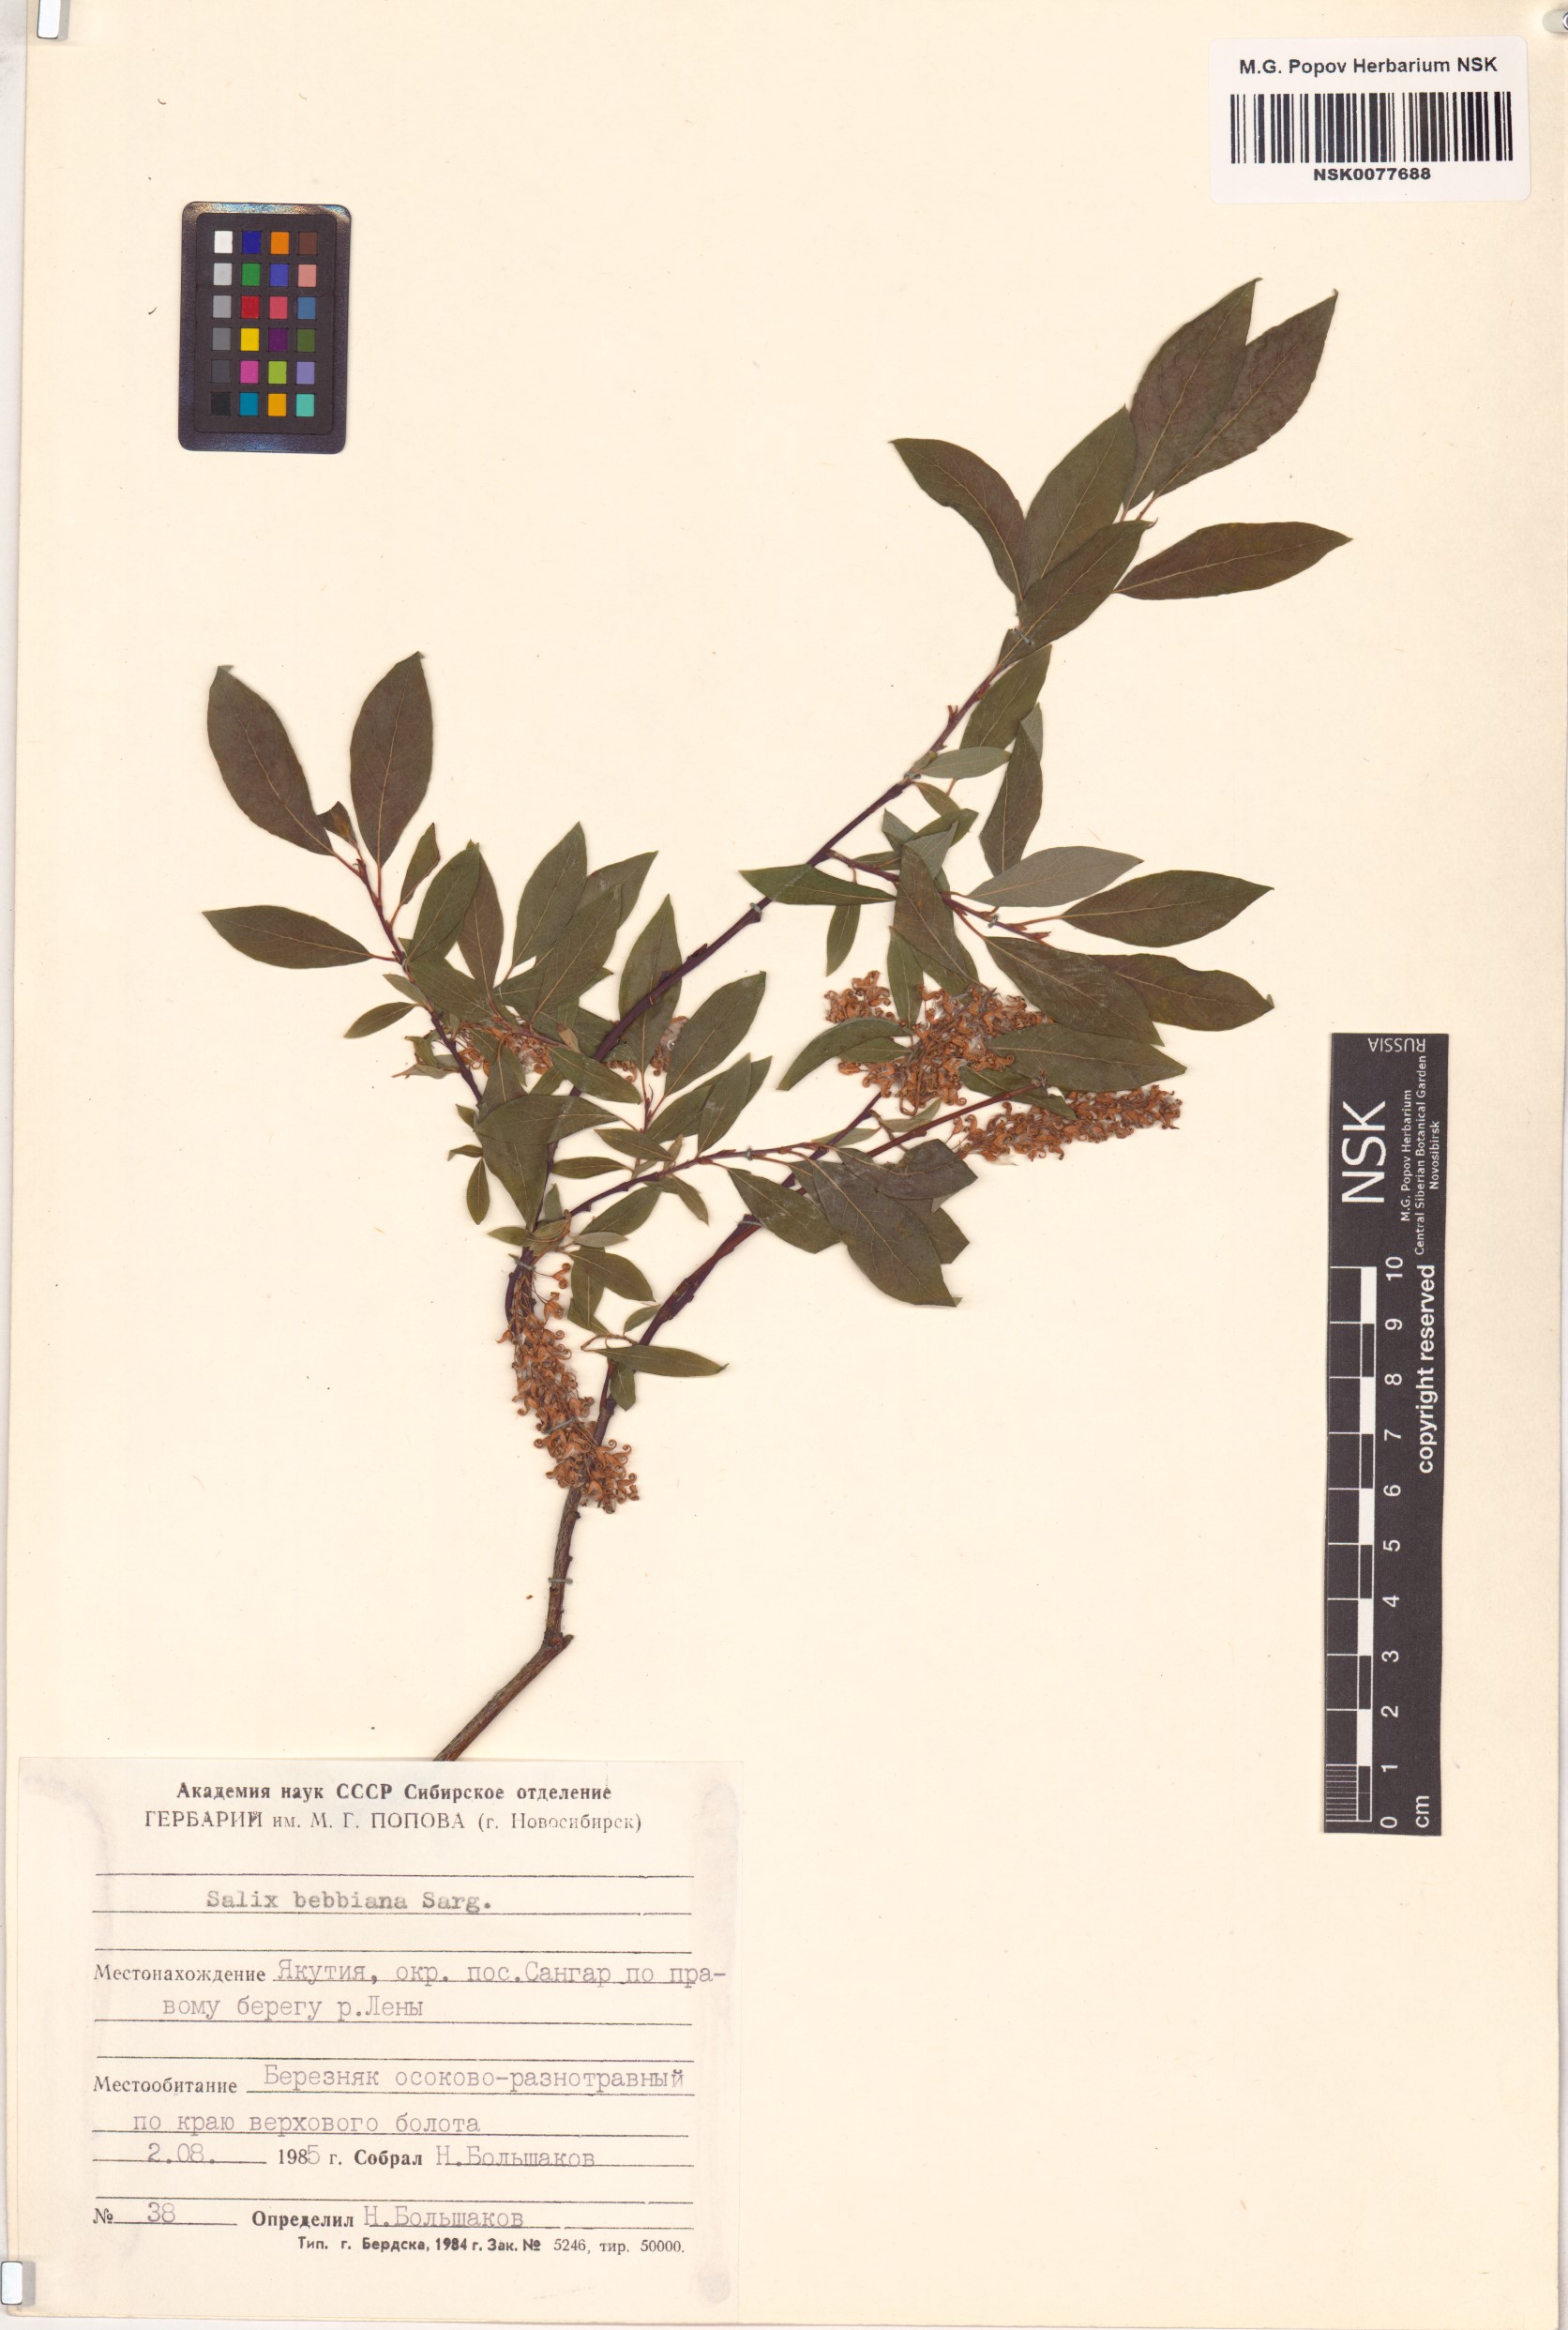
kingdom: Plantae
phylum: Tracheophyta
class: Magnoliopsida
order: Malpighiales
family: Salicaceae
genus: Salix
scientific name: Salix bebbiana
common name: Bebb's willow
